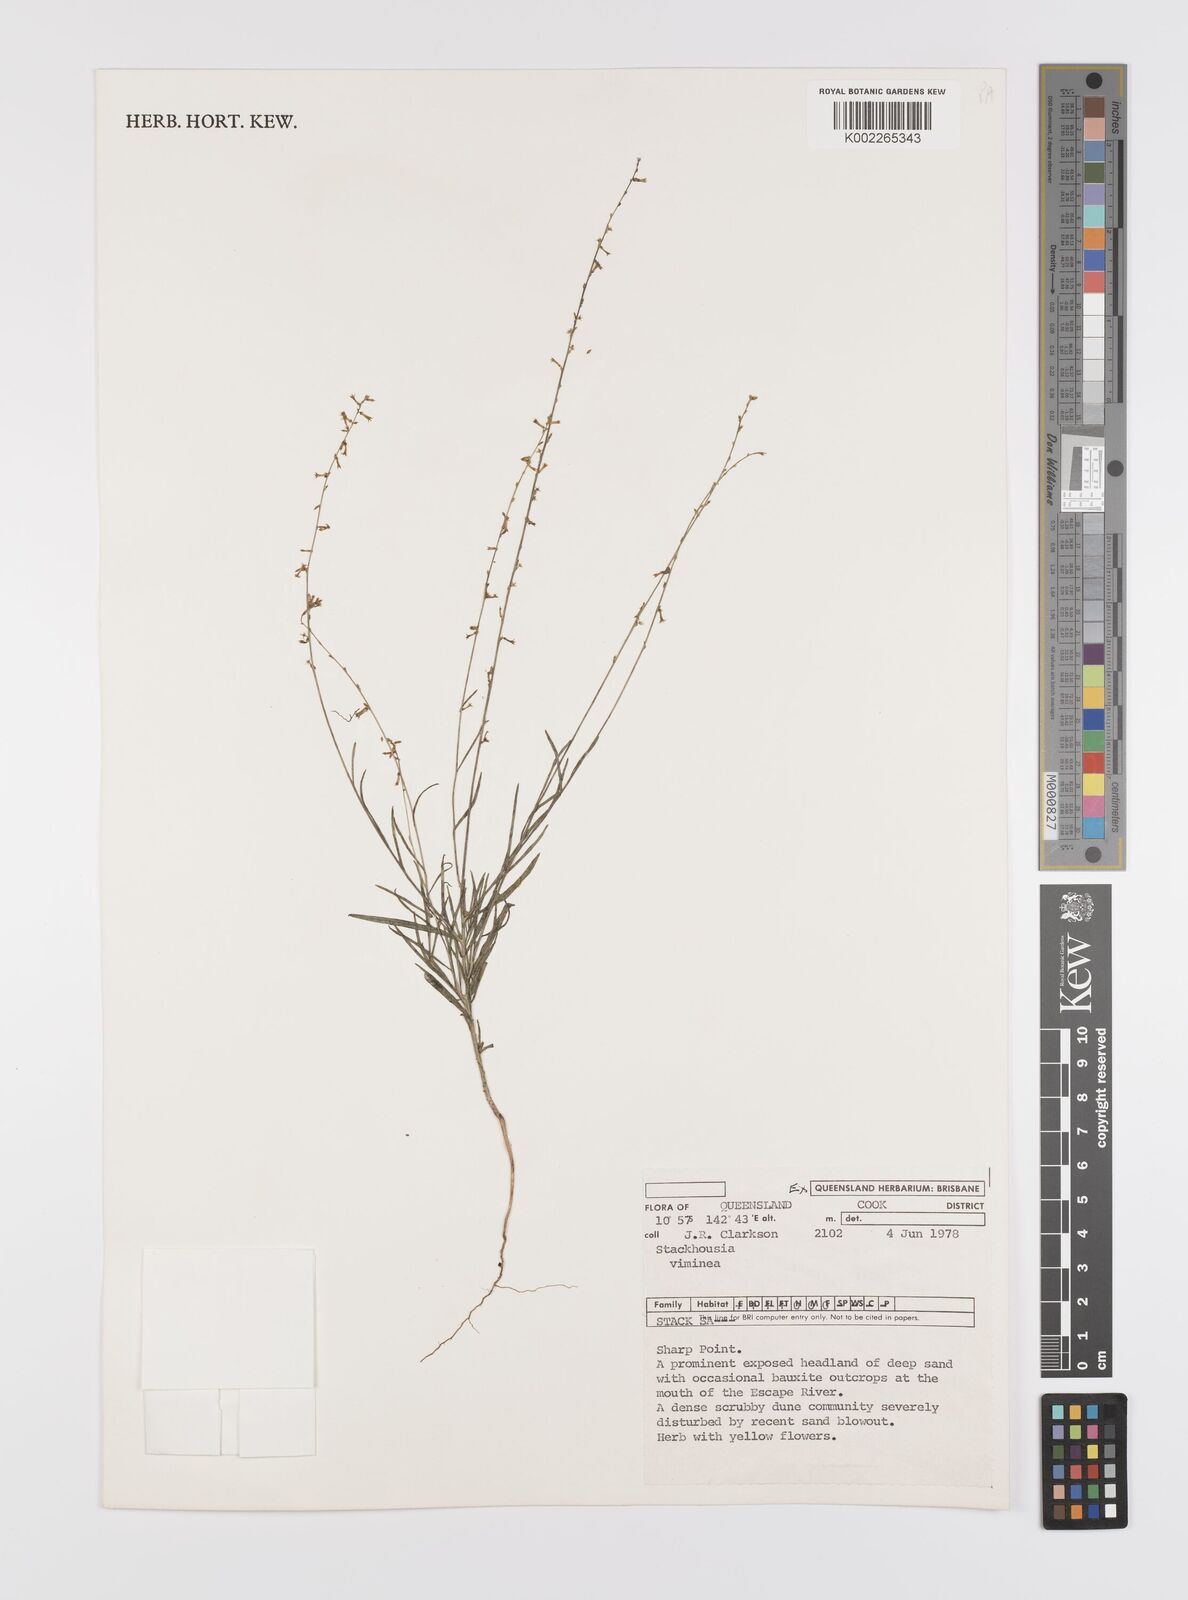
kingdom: Plantae
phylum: Tracheophyta
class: Magnoliopsida
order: Celastrales
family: Celastraceae
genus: Stackhousia
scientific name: Stackhousia viminea
